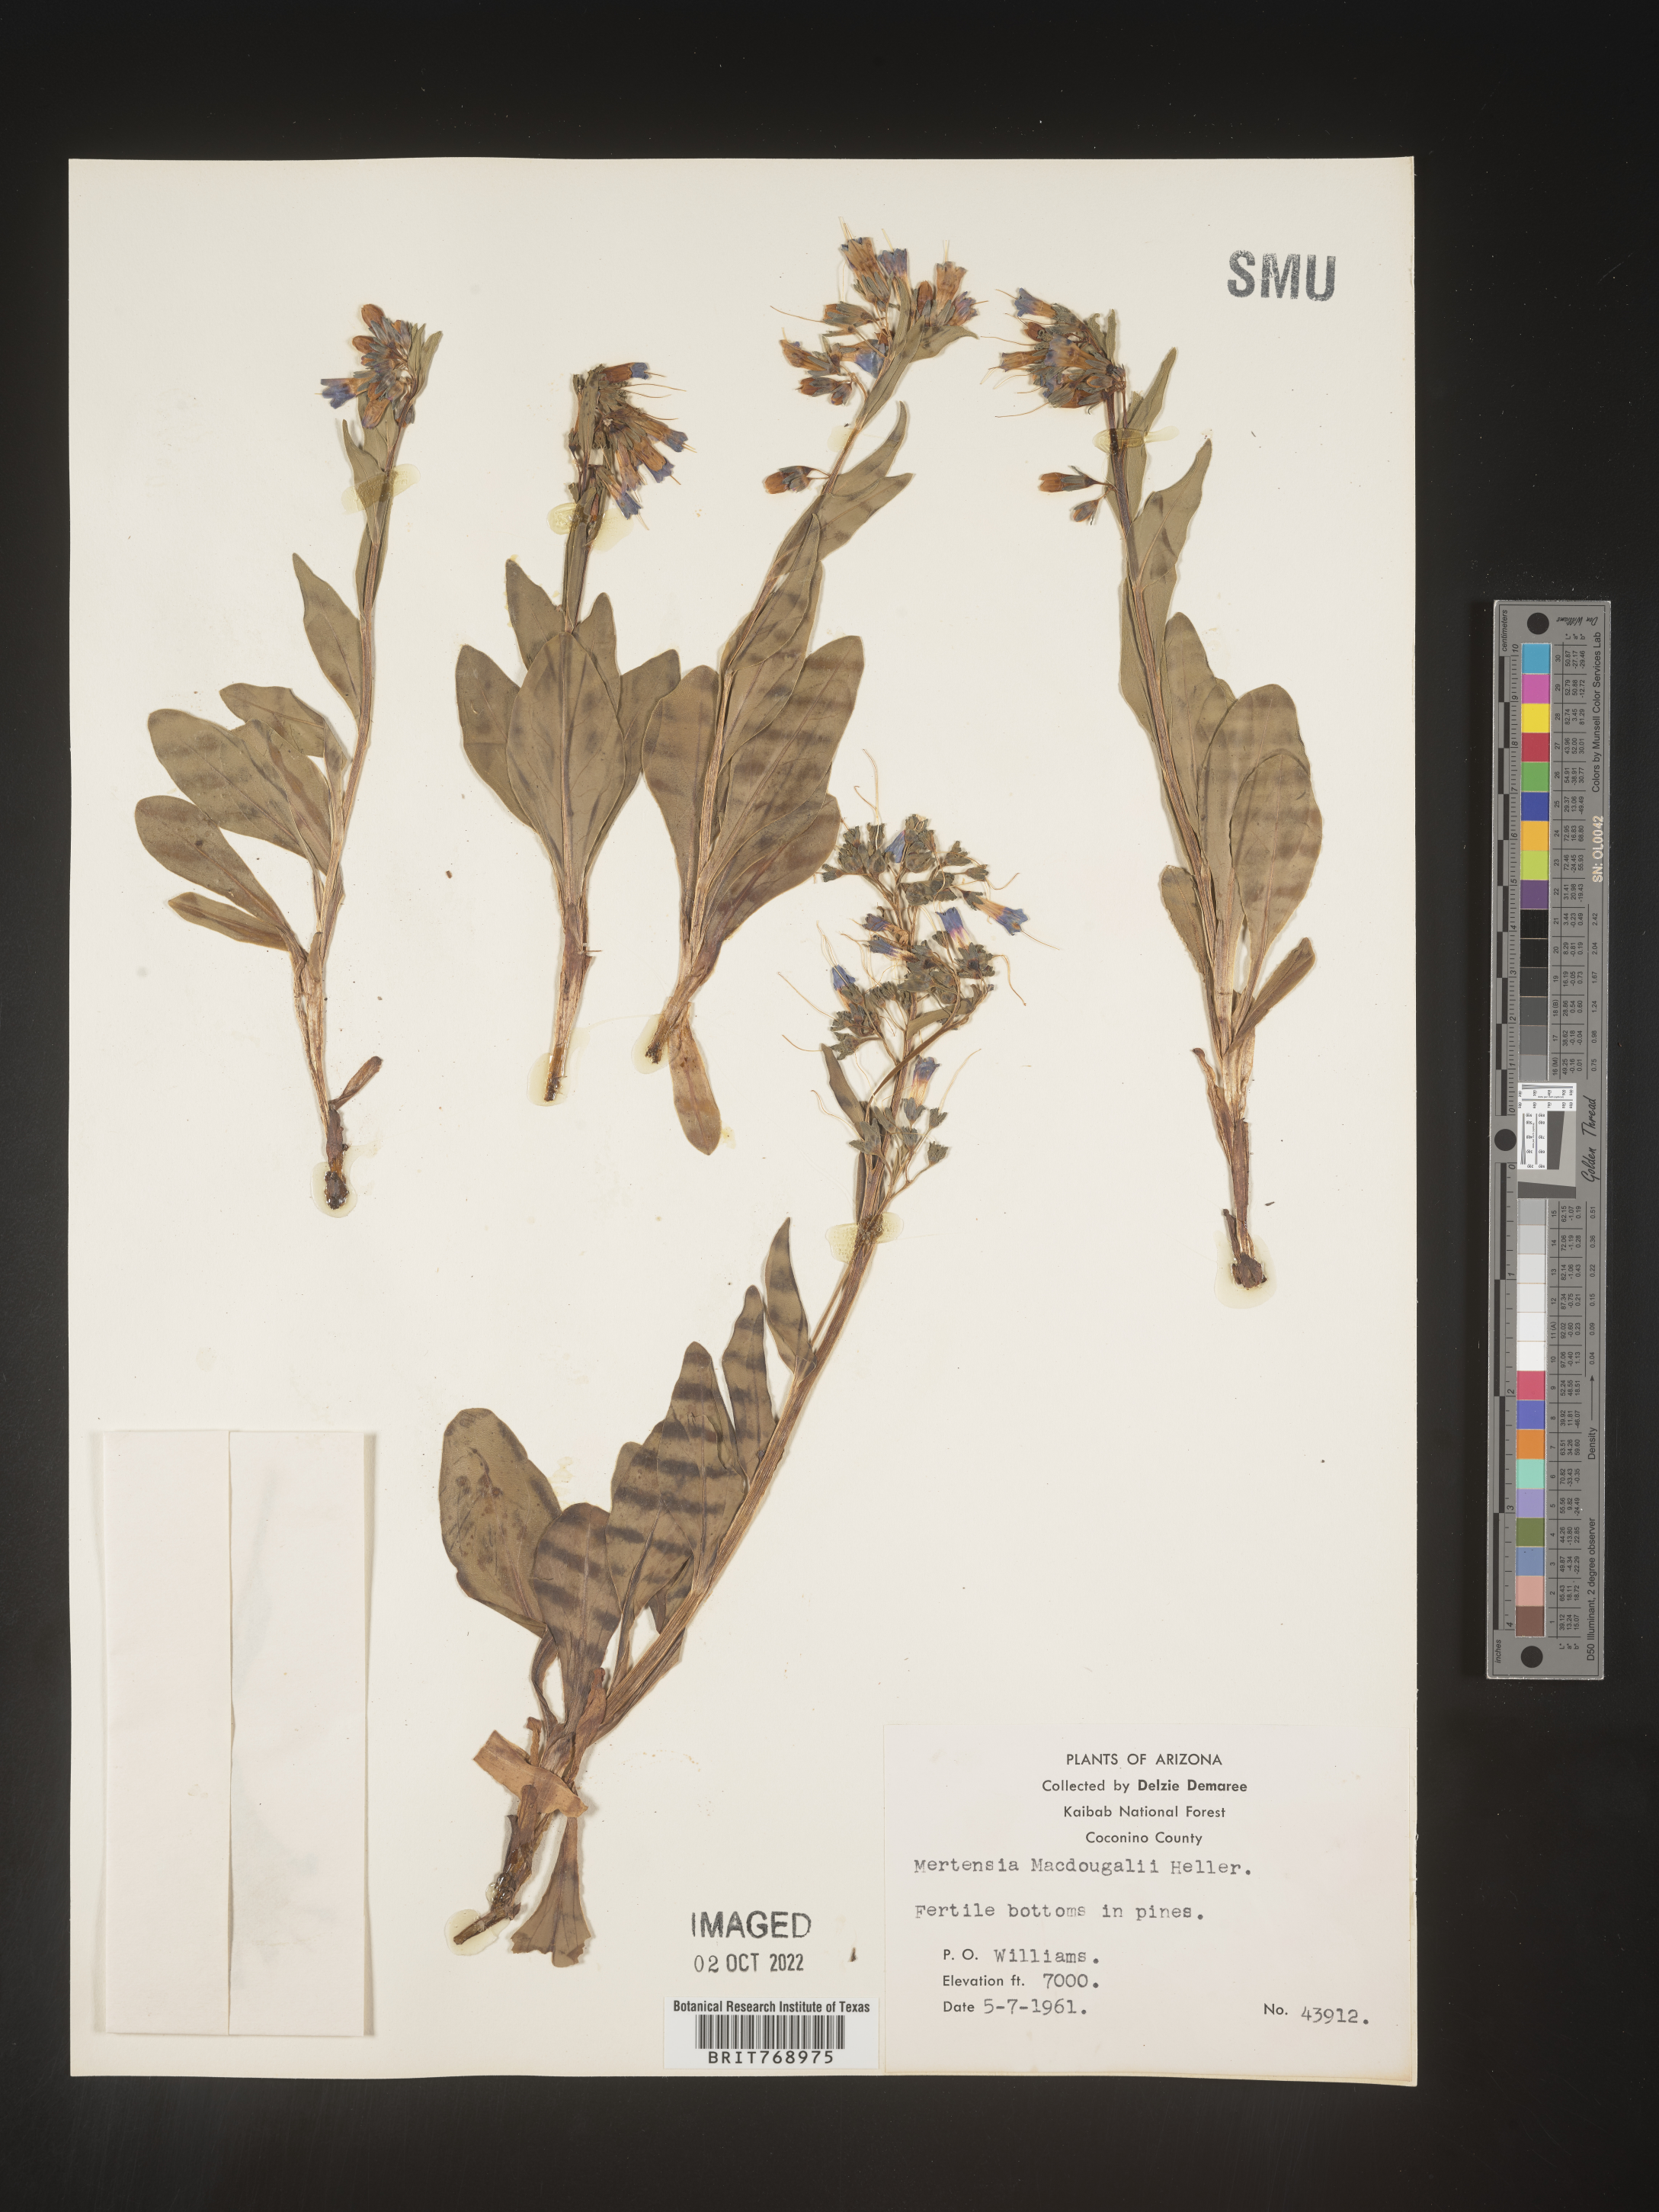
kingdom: Plantae
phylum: Tracheophyta
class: Magnoliopsida
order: Boraginales
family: Boraginaceae
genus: Mertensia
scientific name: Mertensia
